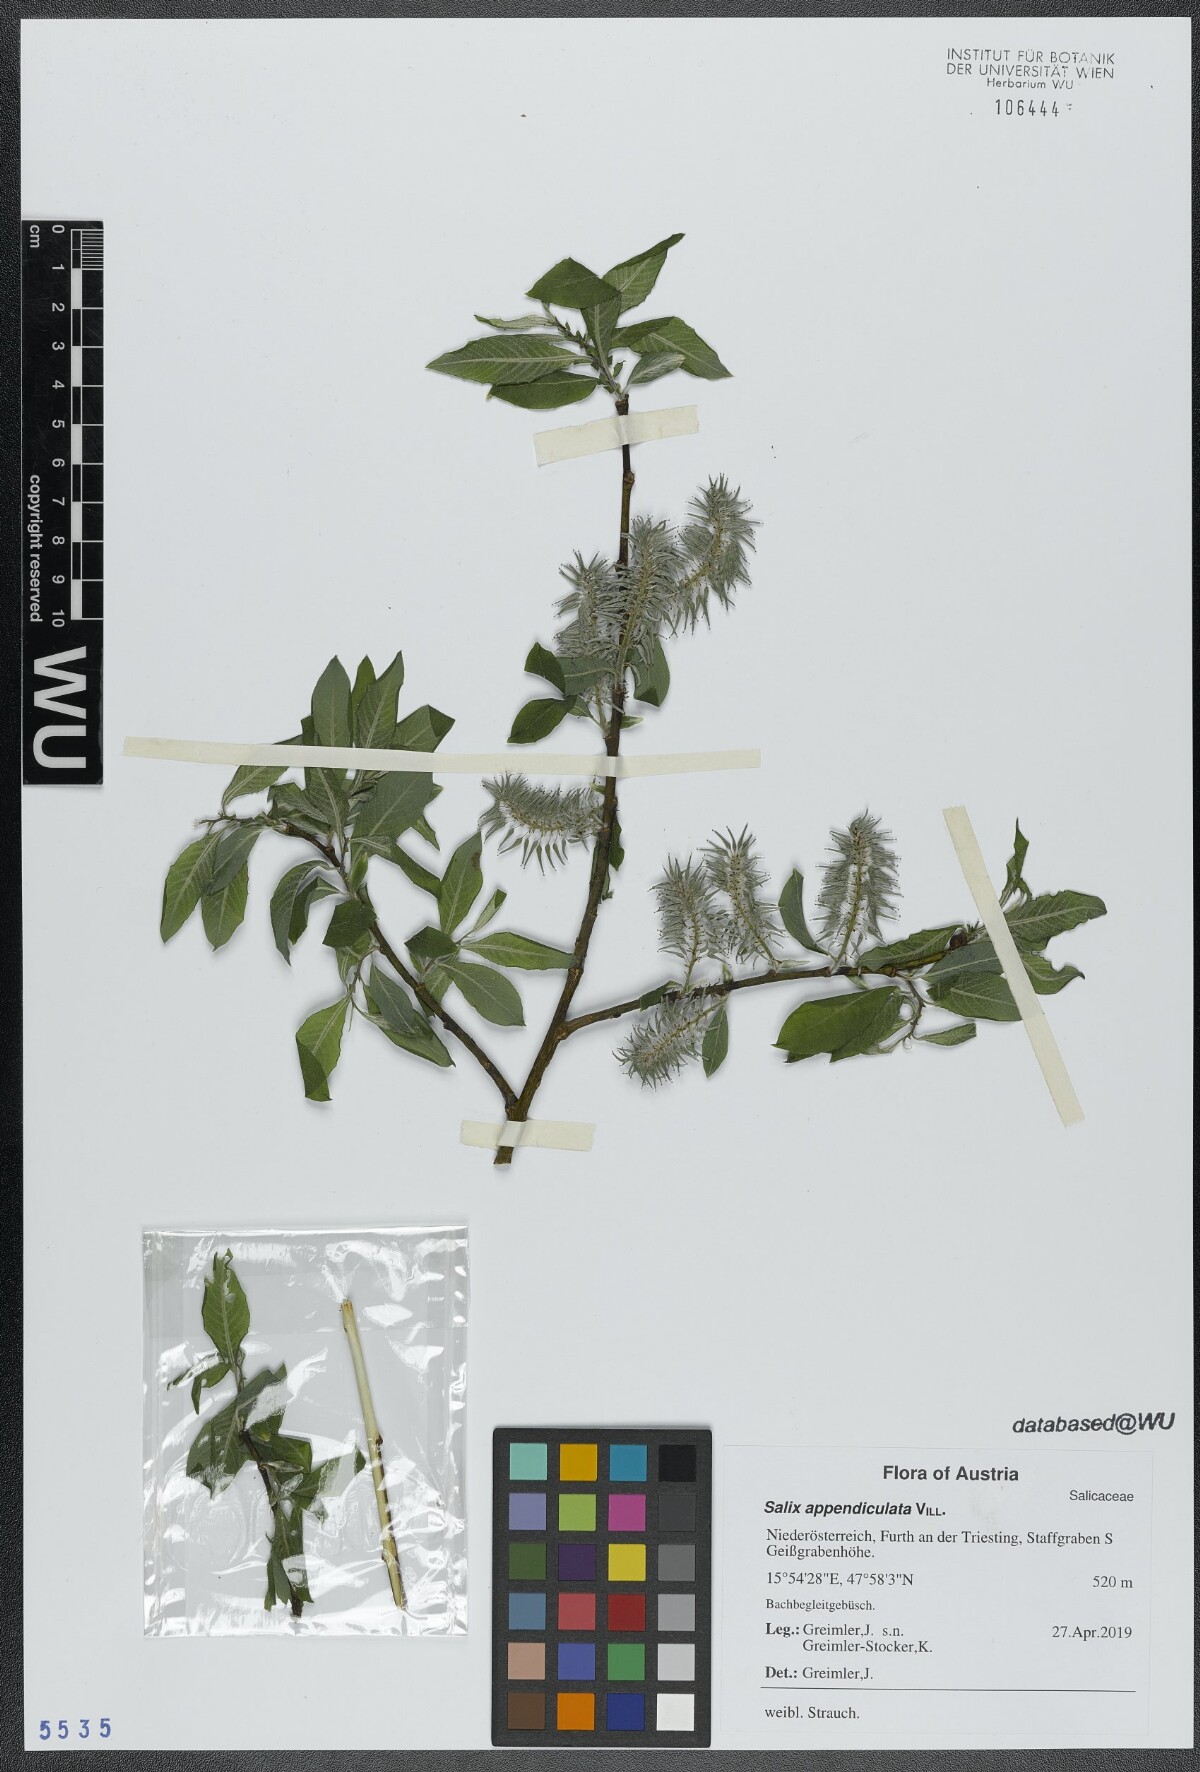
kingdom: Plantae
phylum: Tracheophyta
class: Magnoliopsida
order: Malpighiales
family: Salicaceae
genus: Salix
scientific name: Salix appendiculata
